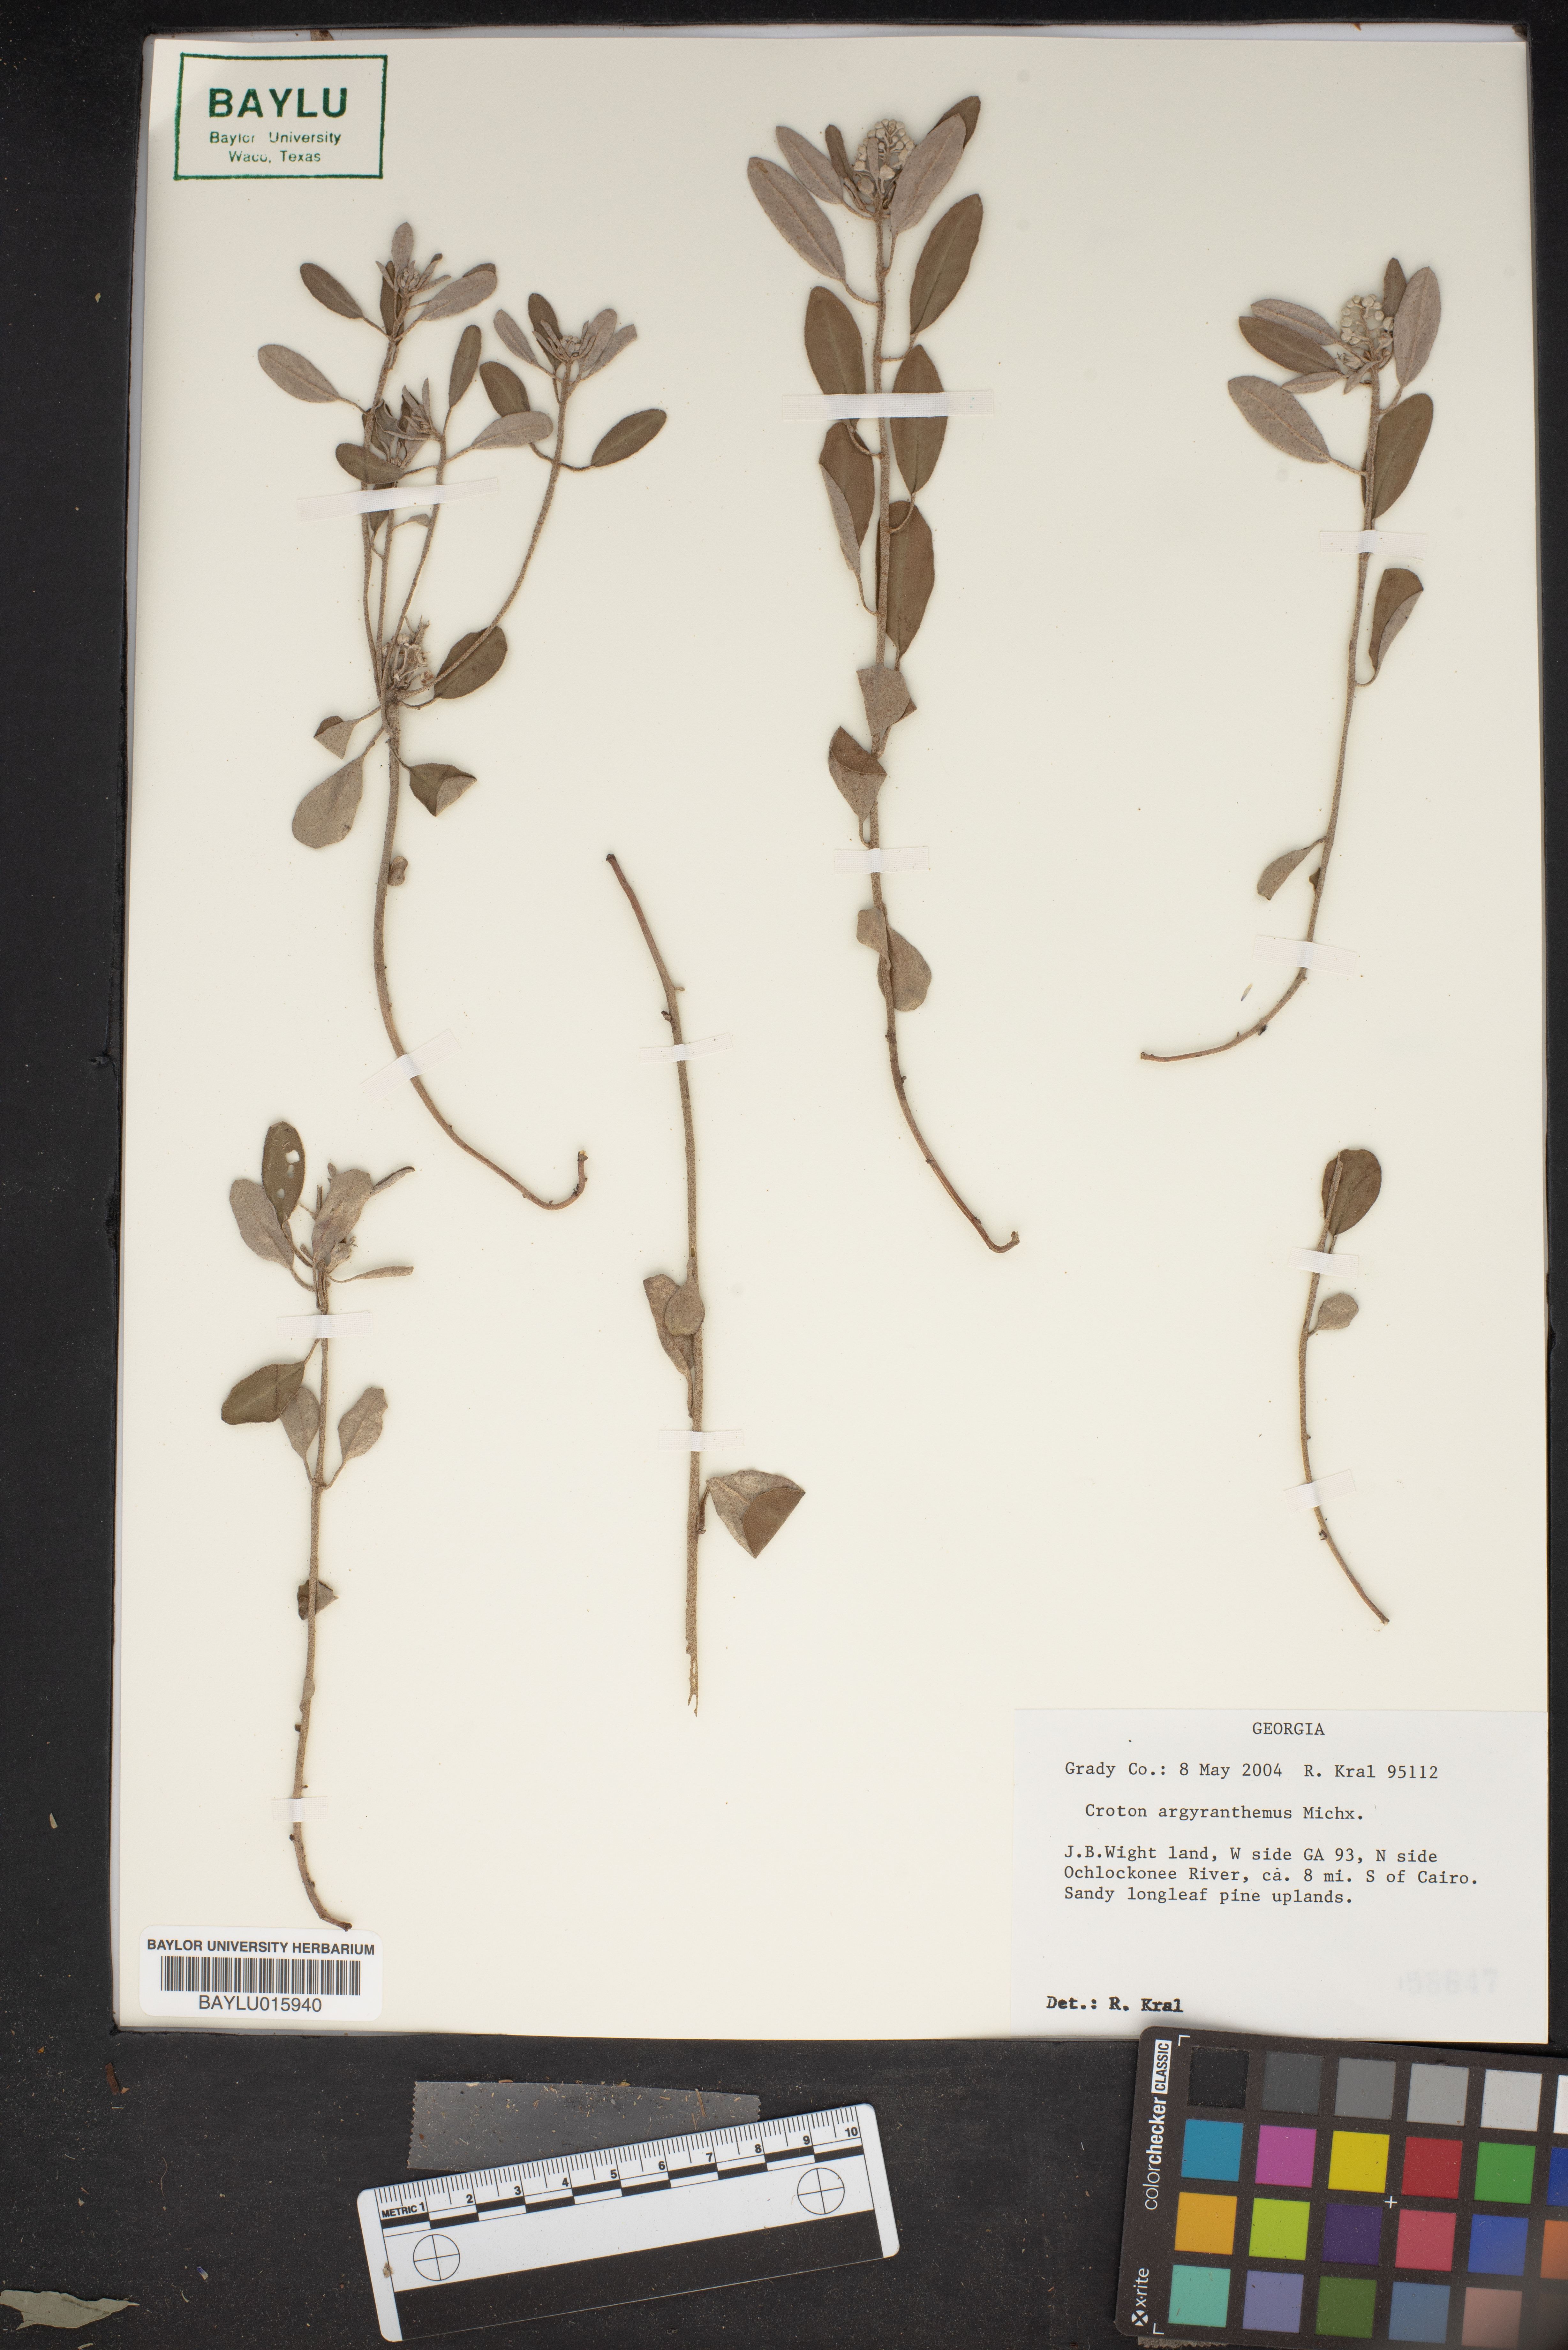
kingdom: Plantae
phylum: Tracheophyta
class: Magnoliopsida
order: Malpighiales
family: Euphorbiaceae
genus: Croton
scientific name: Croton argyranthemus
